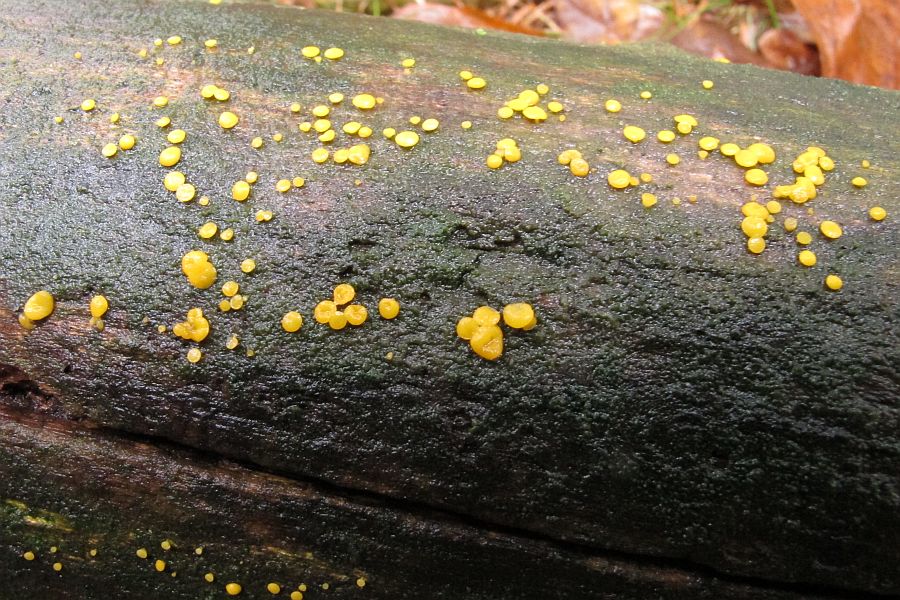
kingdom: Fungi
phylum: Ascomycota
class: Leotiomycetes
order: Helotiales
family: Pezizellaceae
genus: Calycina
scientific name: Calycina citrina
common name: almindelig gulskive
